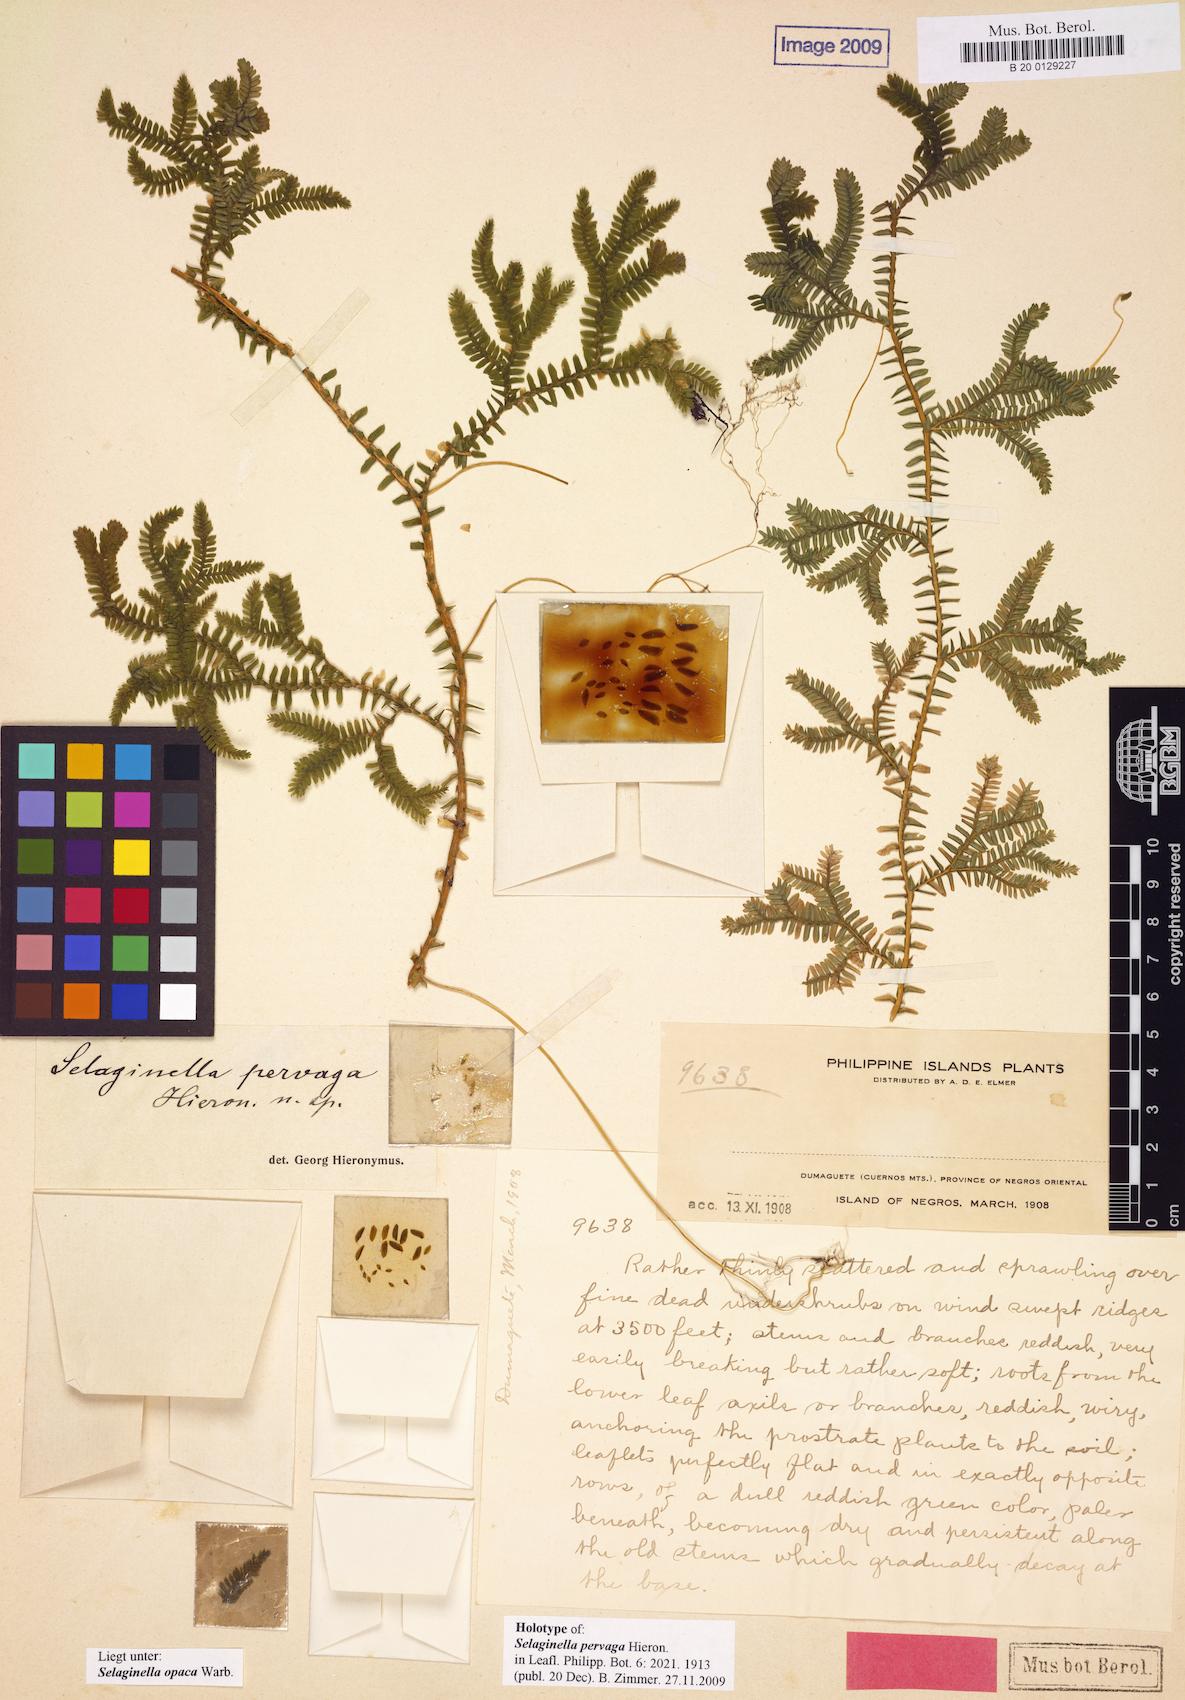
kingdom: Plantae
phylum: Tracheophyta
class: Lycopodiopsida
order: Selaginellales
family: Selaginellaceae
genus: Selaginella
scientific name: Selaginella opaca
